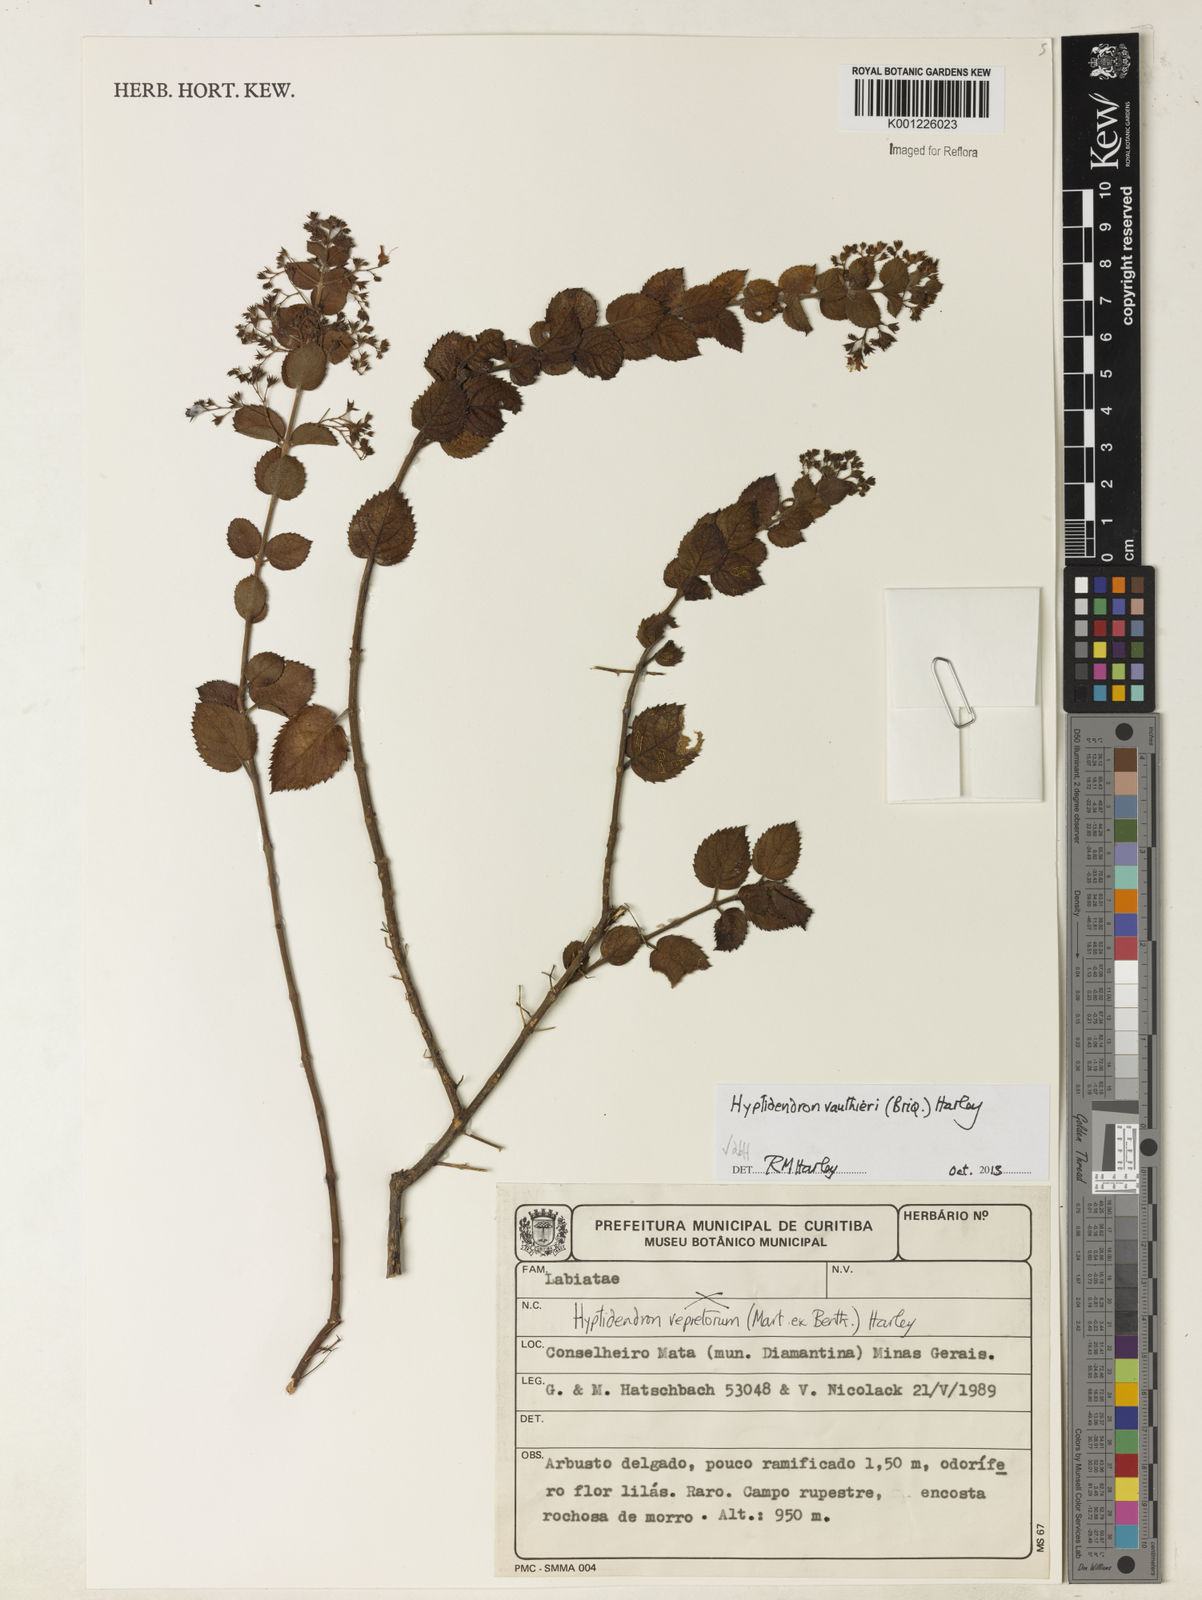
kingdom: Plantae
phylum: Tracheophyta
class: Magnoliopsida
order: Lamiales
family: Lamiaceae
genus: Hyptidendron
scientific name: Hyptidendron unilaterale
